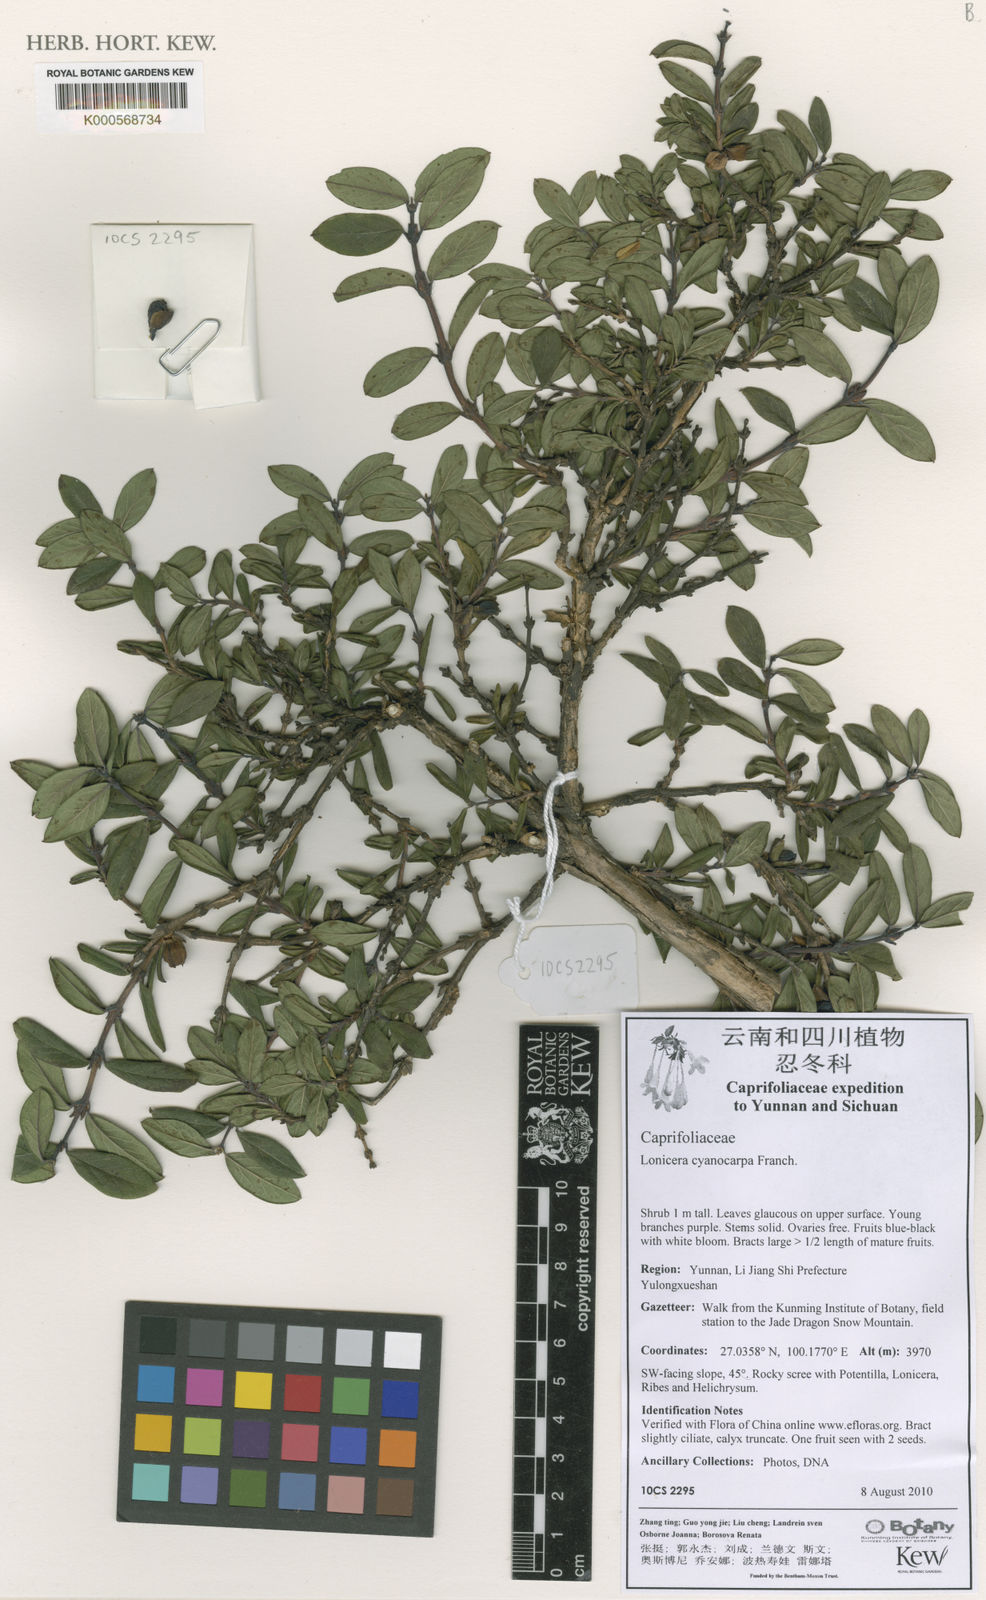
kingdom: Plantae
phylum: Tracheophyta
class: Magnoliopsida
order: Dipsacales
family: Caprifoliaceae
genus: Lonicera
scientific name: Lonicera cyanocarpa
